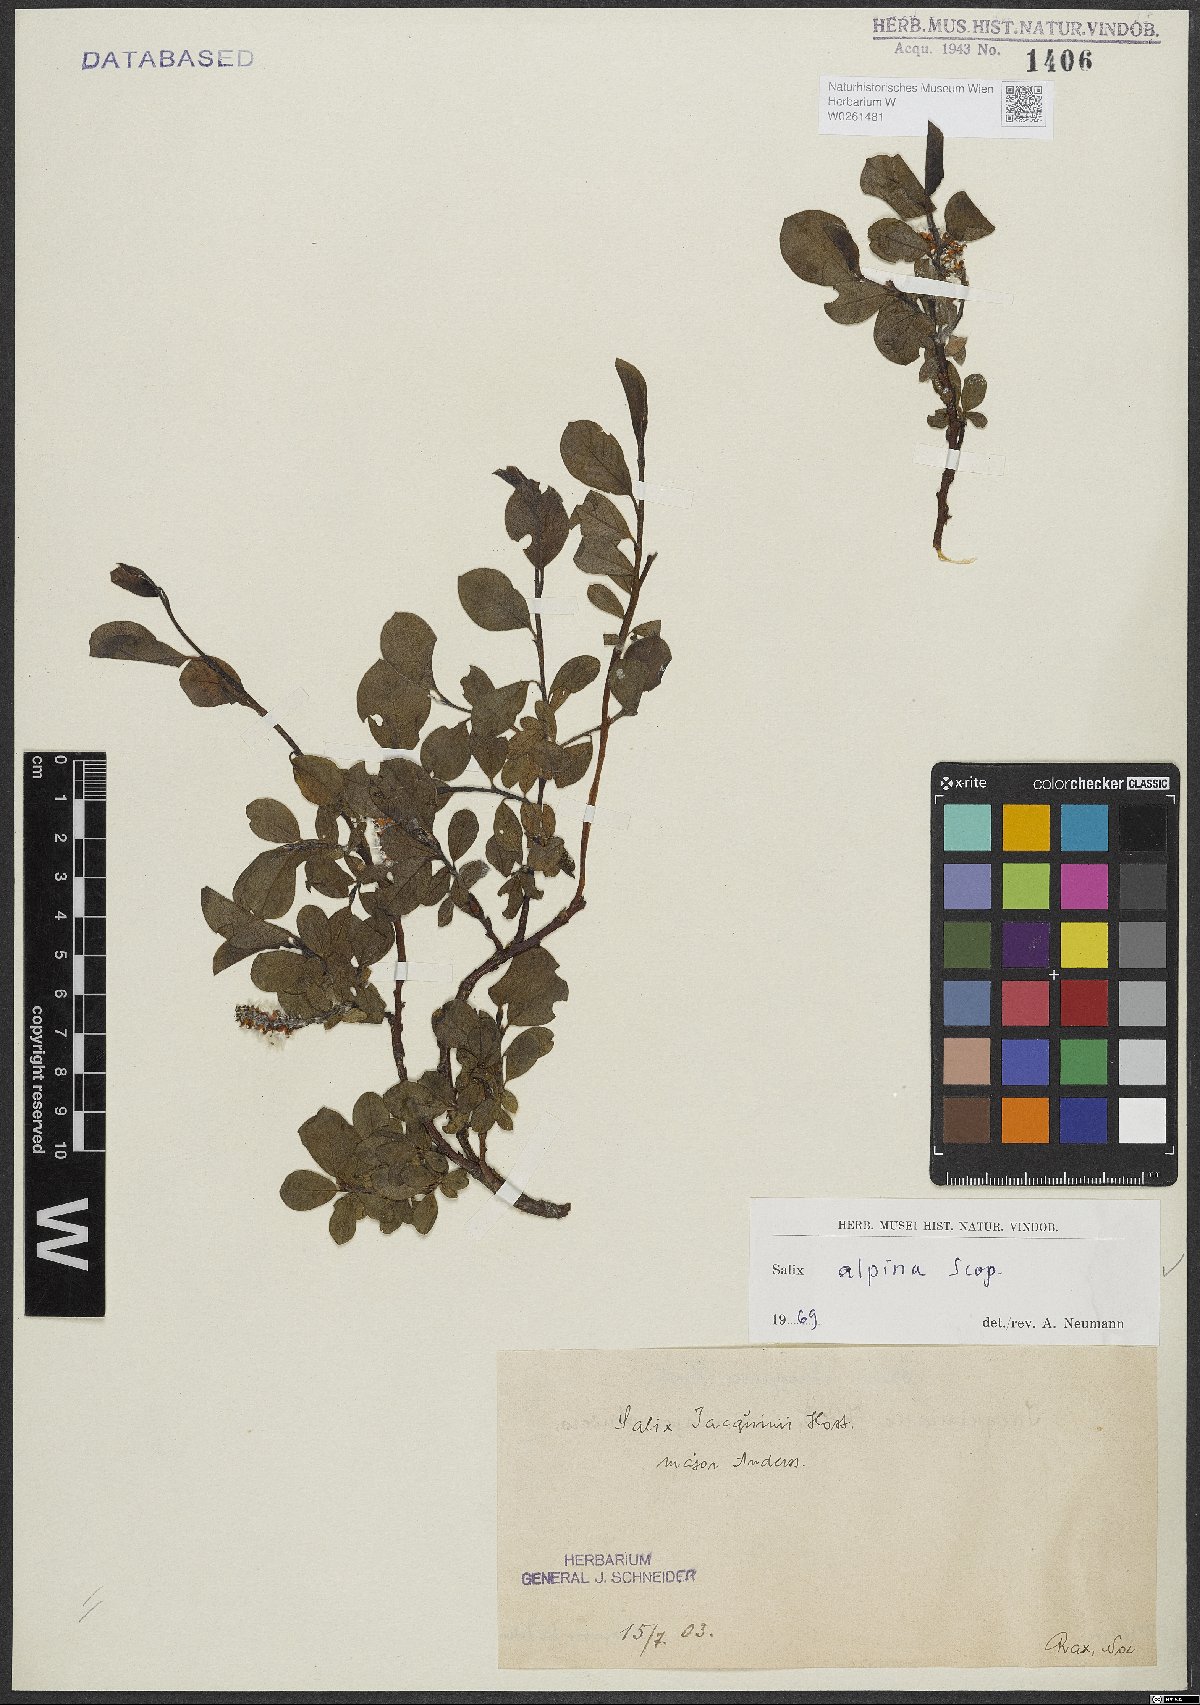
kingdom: Plantae
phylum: Tracheophyta
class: Magnoliopsida
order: Malpighiales
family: Salicaceae
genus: Salix
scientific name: Salix alpina
